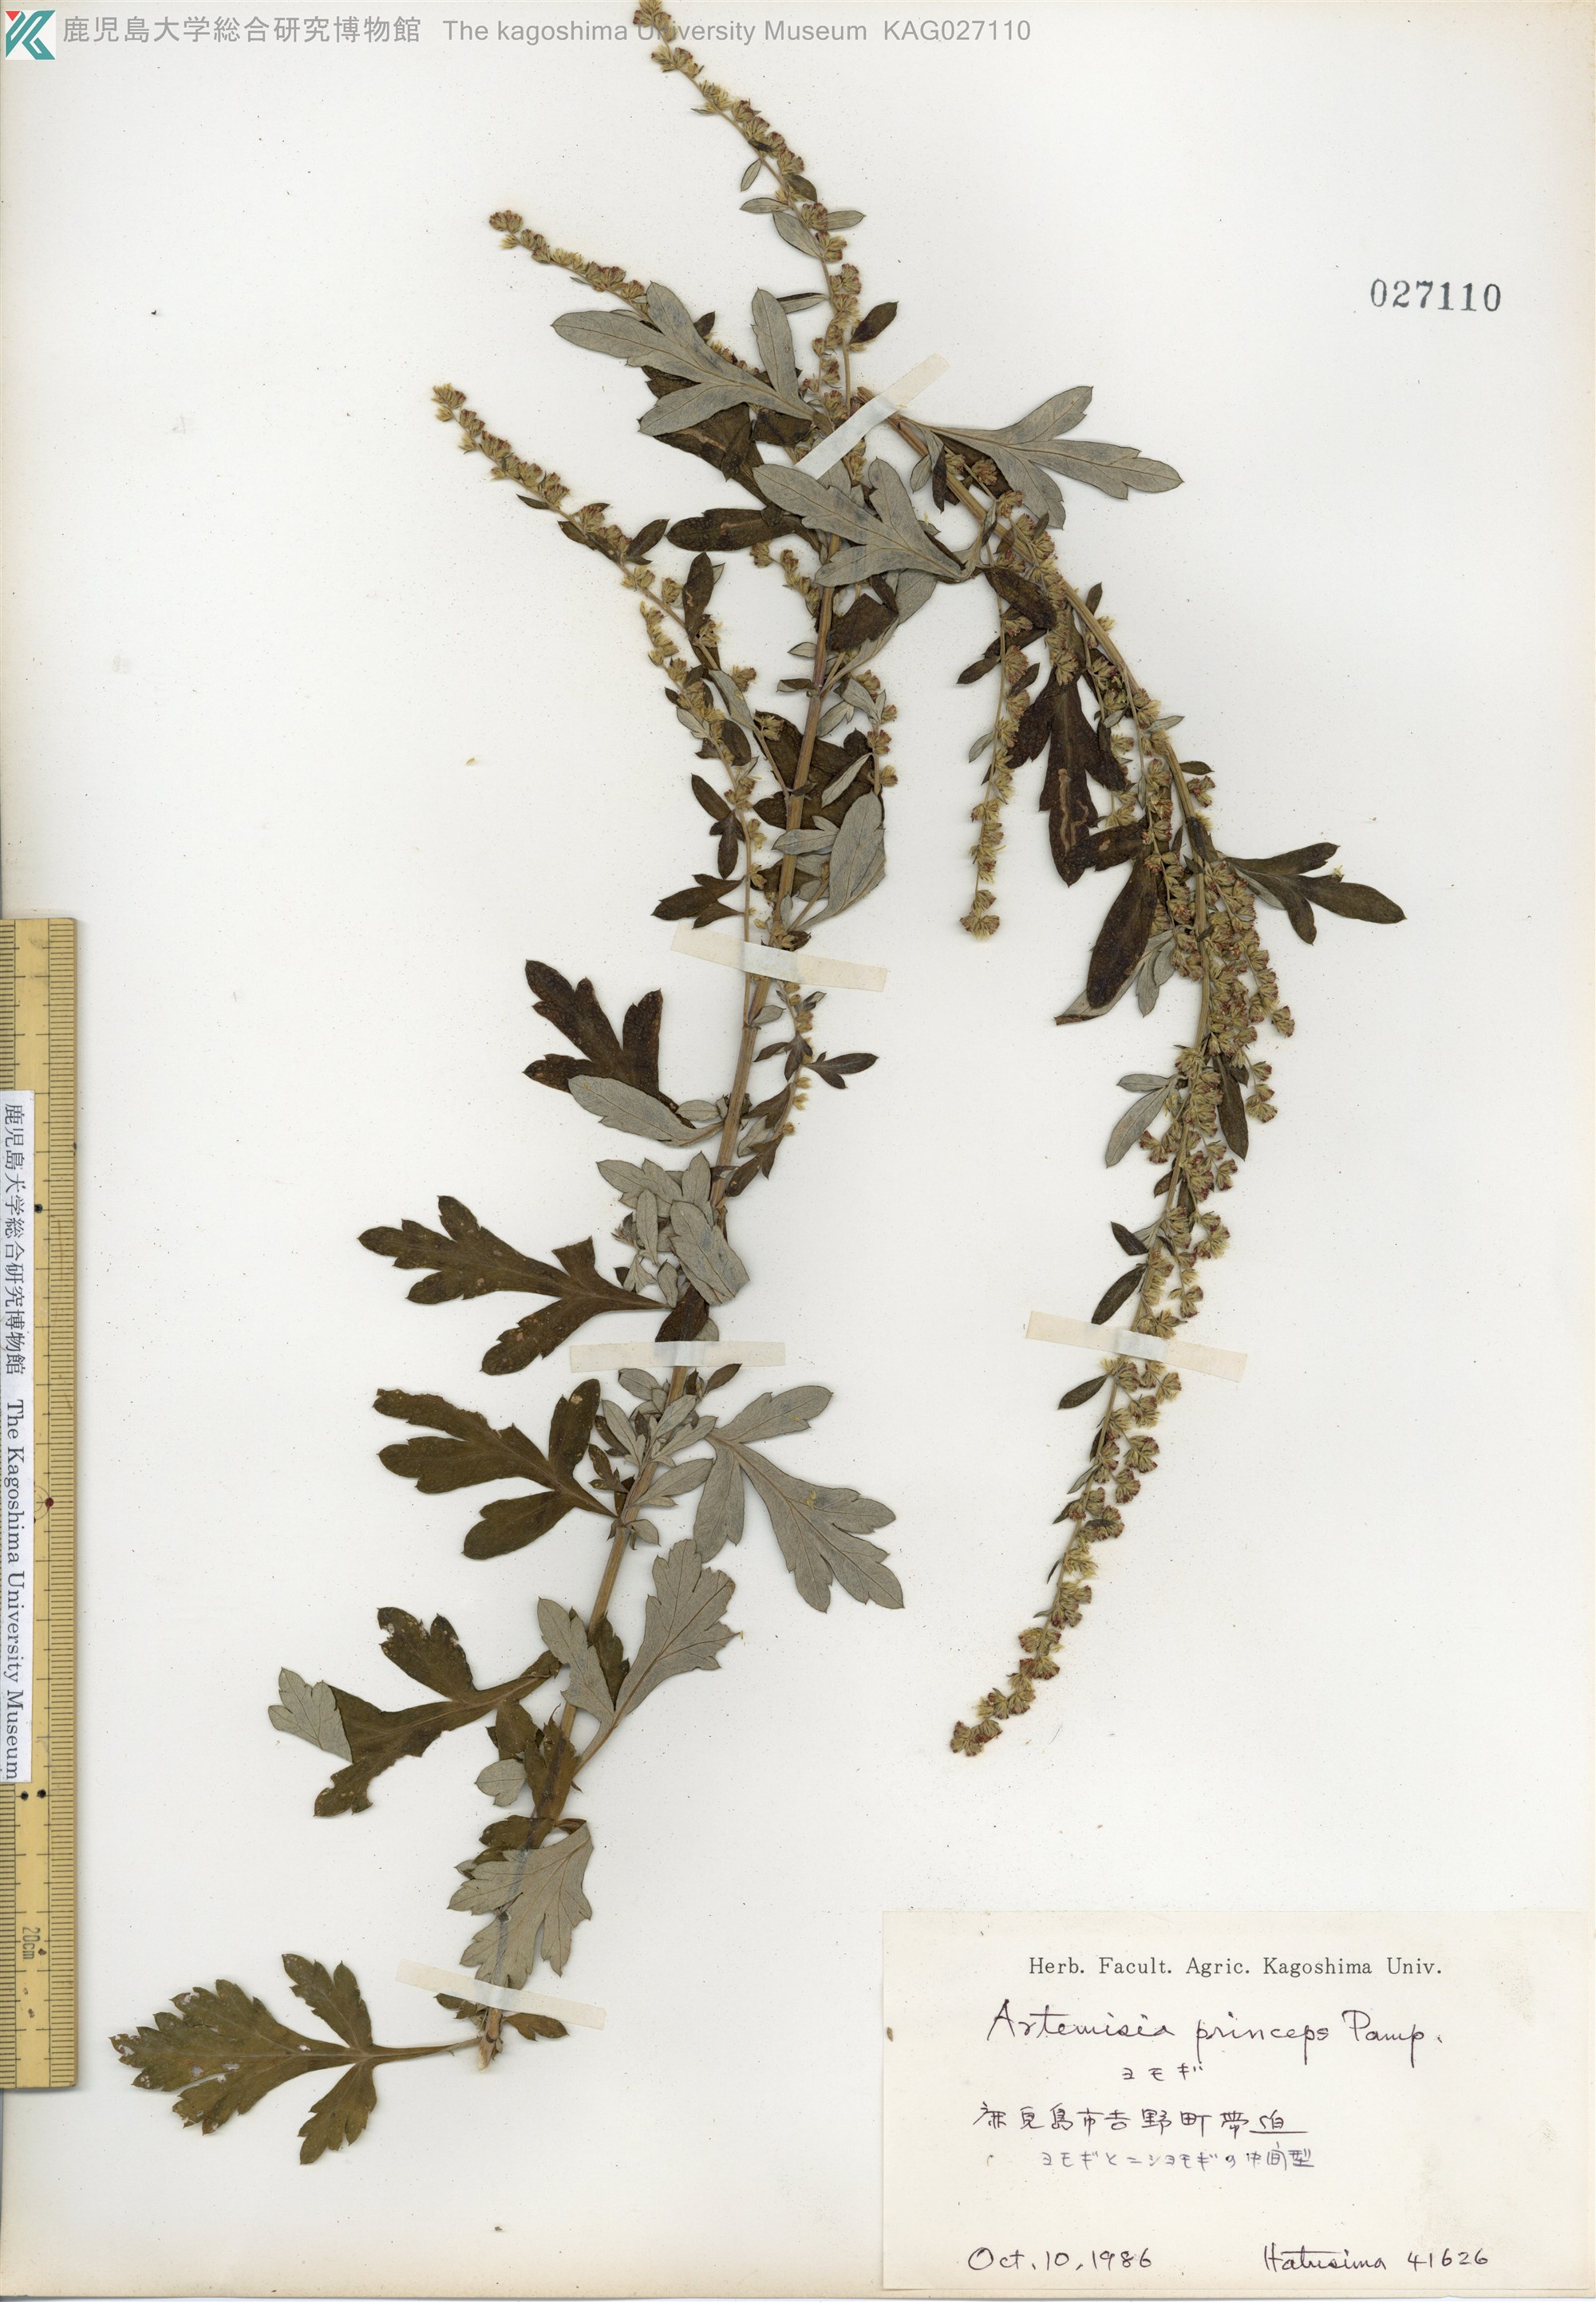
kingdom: Plantae
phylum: Tracheophyta
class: Magnoliopsida
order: Asterales
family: Asteraceae
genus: Artemisia
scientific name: Artemisia indica
